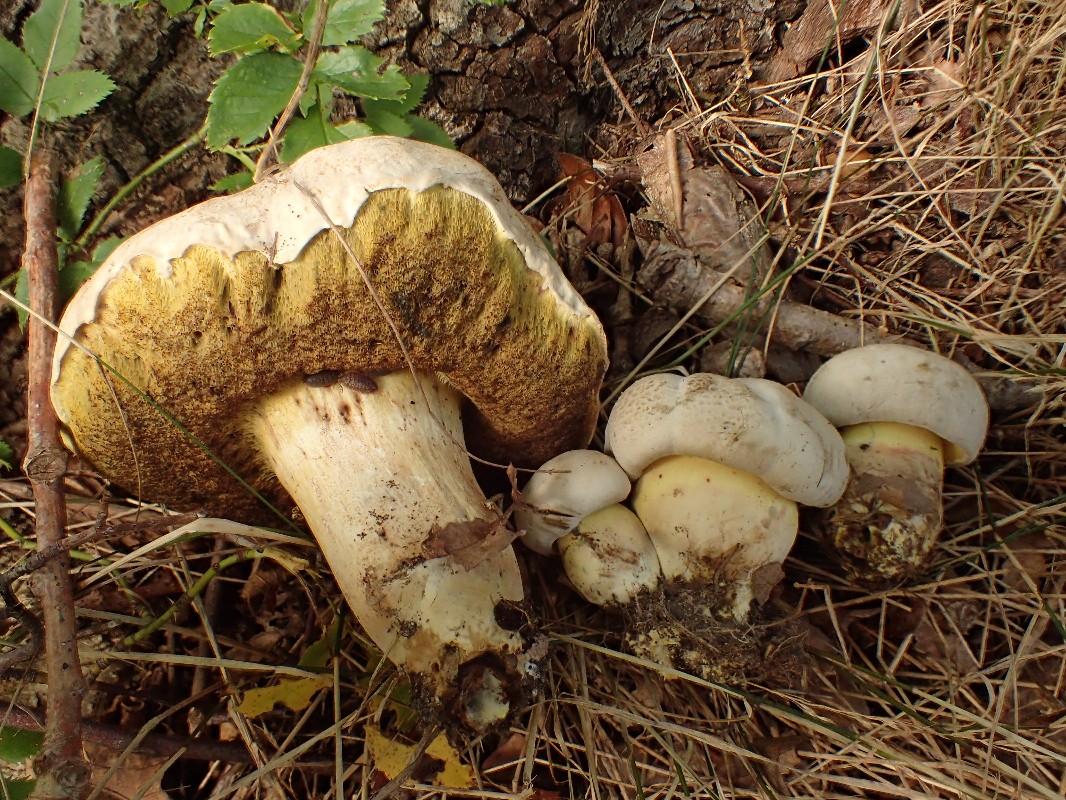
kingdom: Fungi
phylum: Basidiomycota
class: Agaricomycetes
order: Boletales
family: Boletaceae
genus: Caloboletus
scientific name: Caloboletus radicans
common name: rod-rørhat
